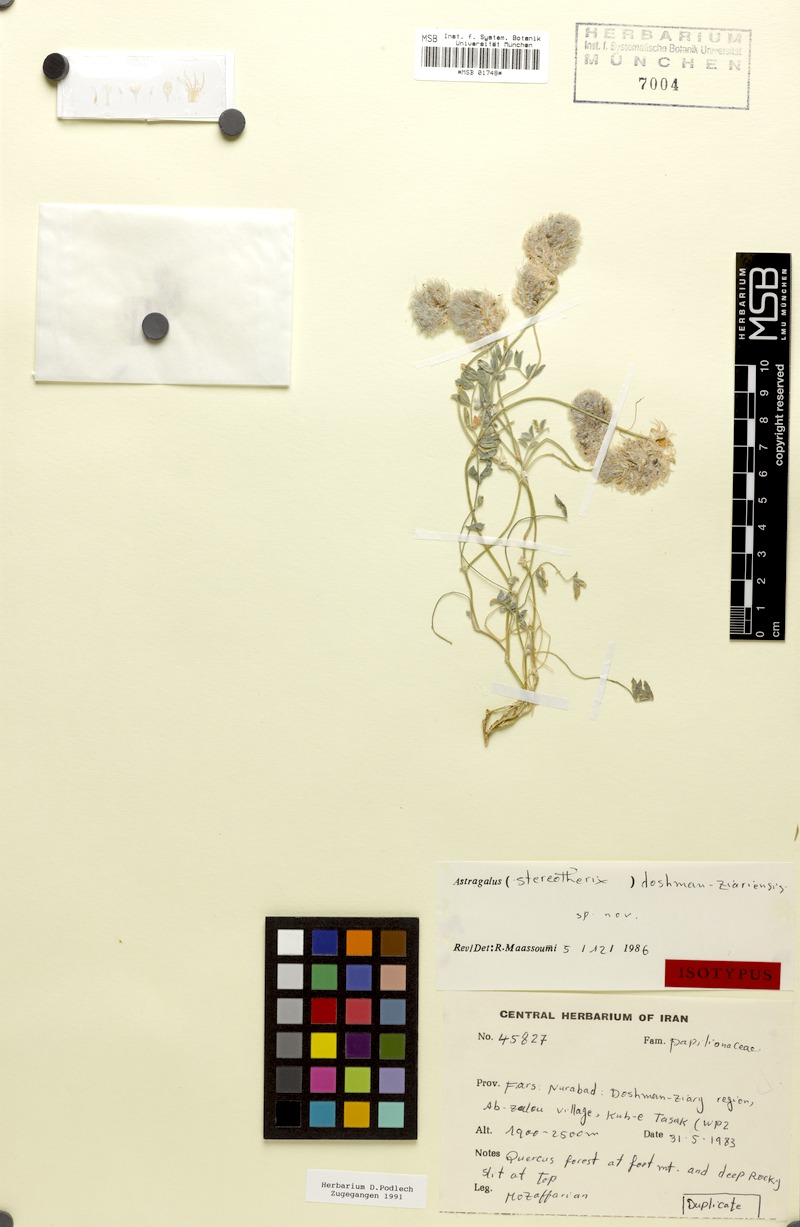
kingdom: Plantae
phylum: Tracheophyta
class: Magnoliopsida
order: Fabales
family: Fabaceae
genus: Astragalus
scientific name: Astragalus doshman-ziariensis
